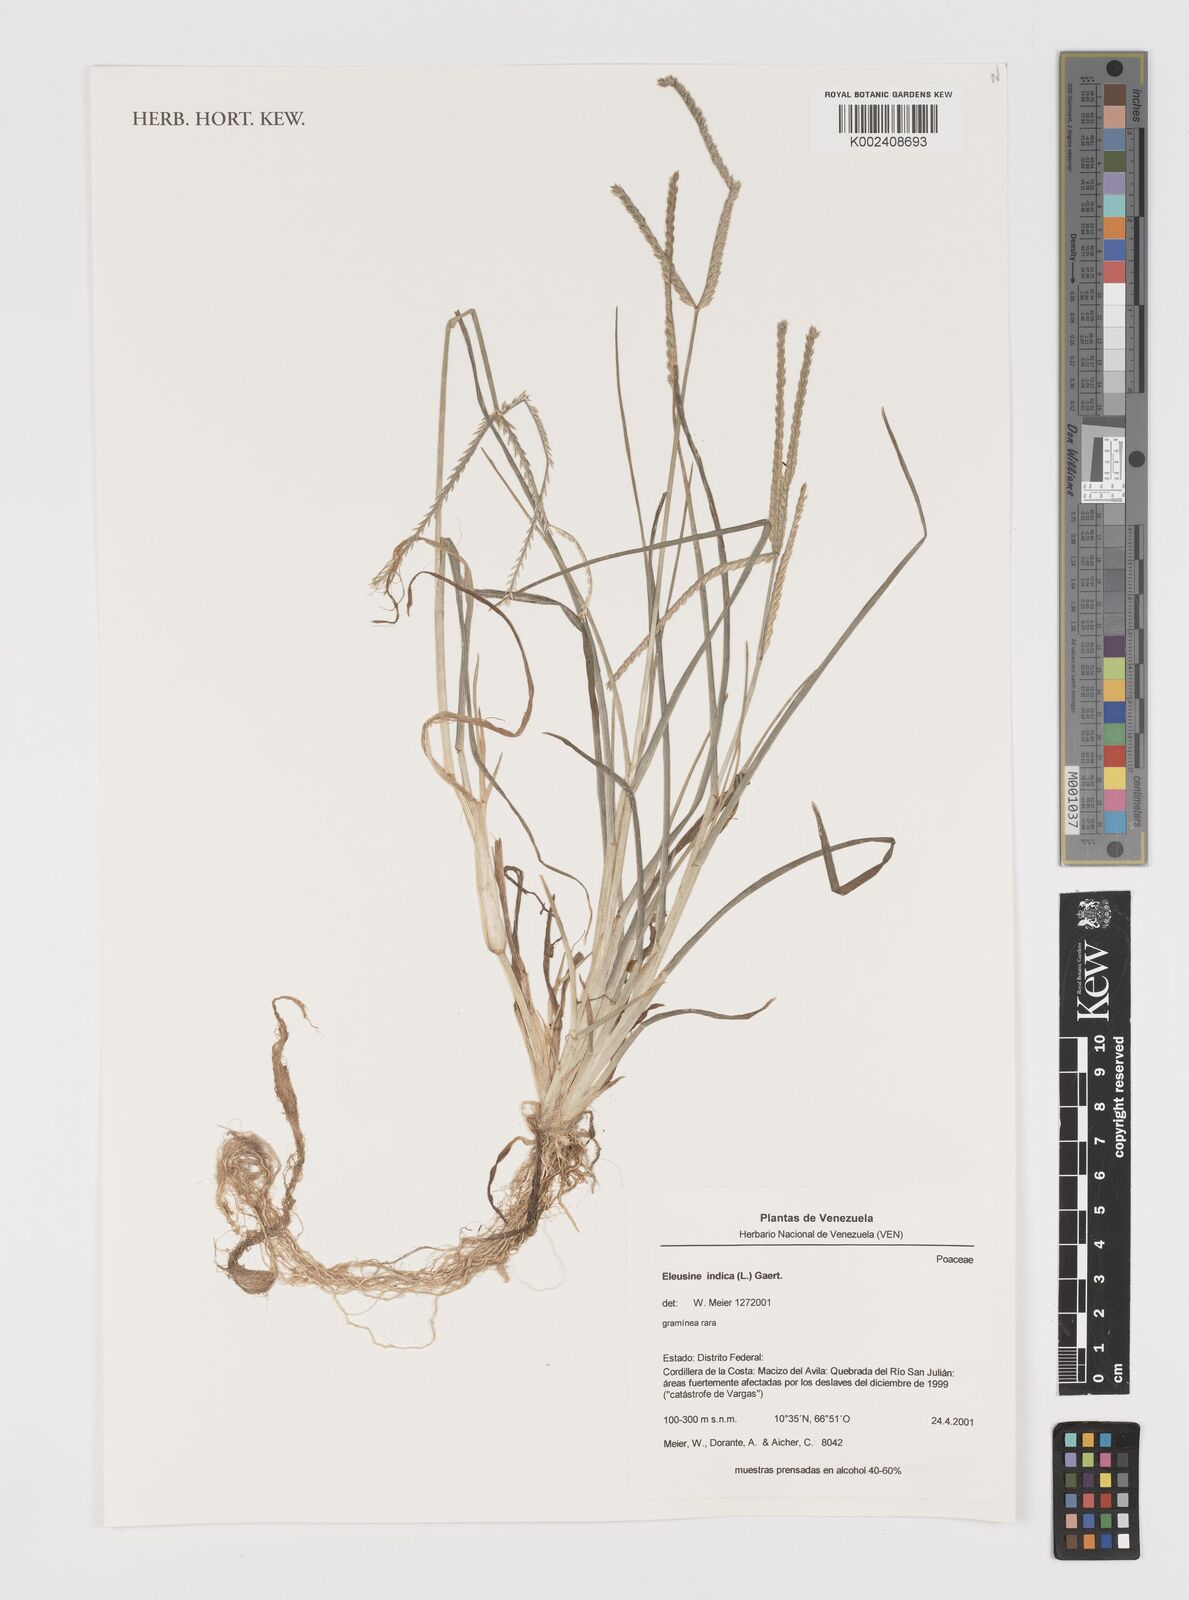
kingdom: Plantae
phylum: Tracheophyta
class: Liliopsida
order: Poales
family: Poaceae
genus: Eleusine
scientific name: Eleusine indica
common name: Yard-grass
